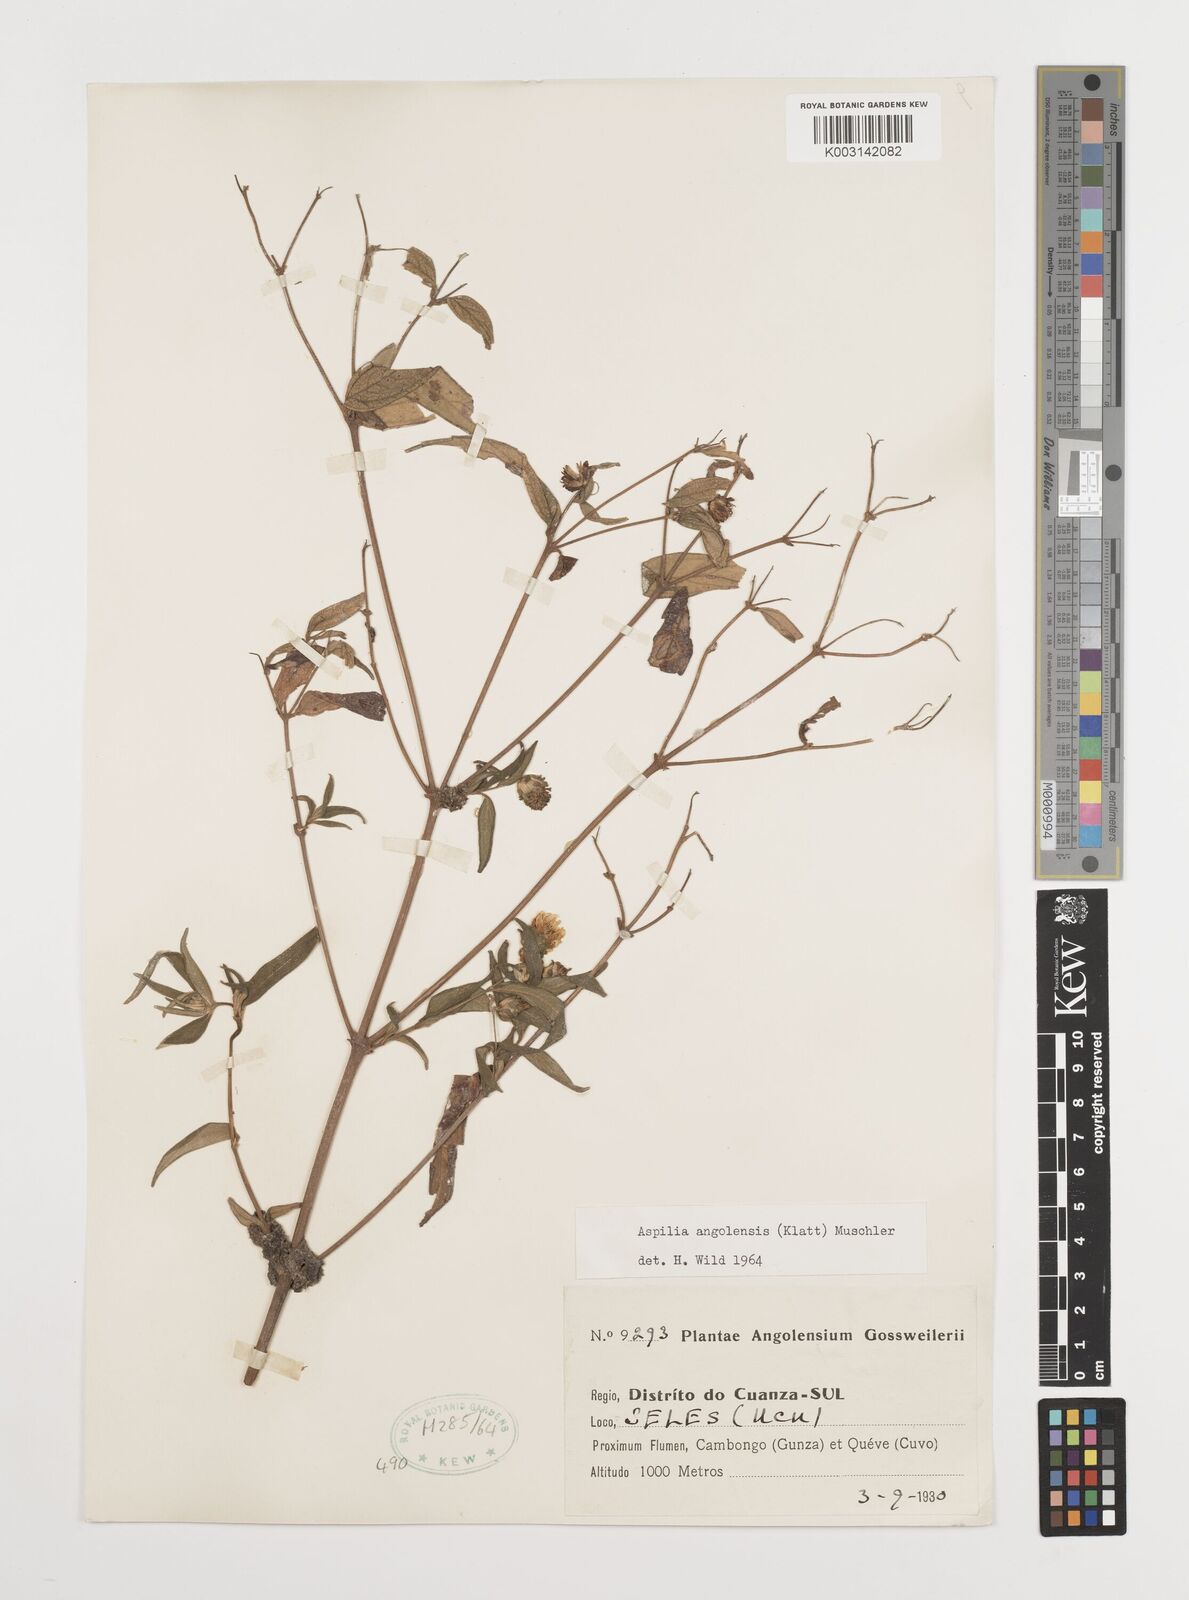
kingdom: Plantae
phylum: Tracheophyta
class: Magnoliopsida
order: Asterales
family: Asteraceae
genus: Aspilia
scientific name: Aspilia angolensis
